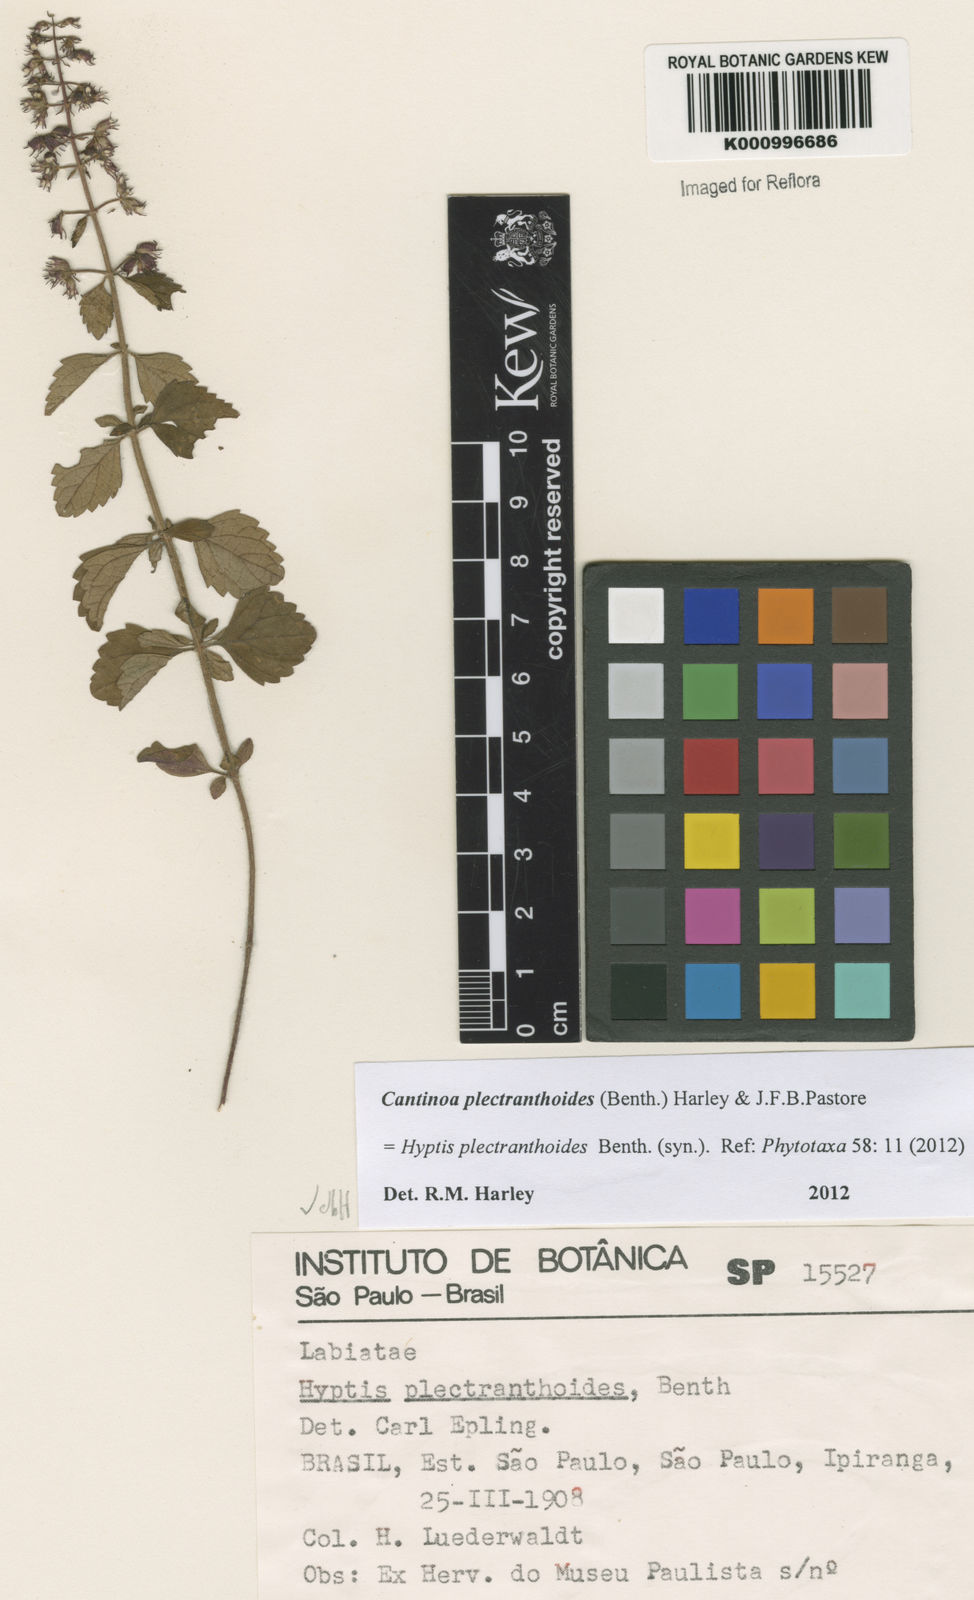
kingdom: Plantae
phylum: Tracheophyta
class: Magnoliopsida
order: Lamiales
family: Lamiaceae
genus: Cantinoa
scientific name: Cantinoa plectranthoides
